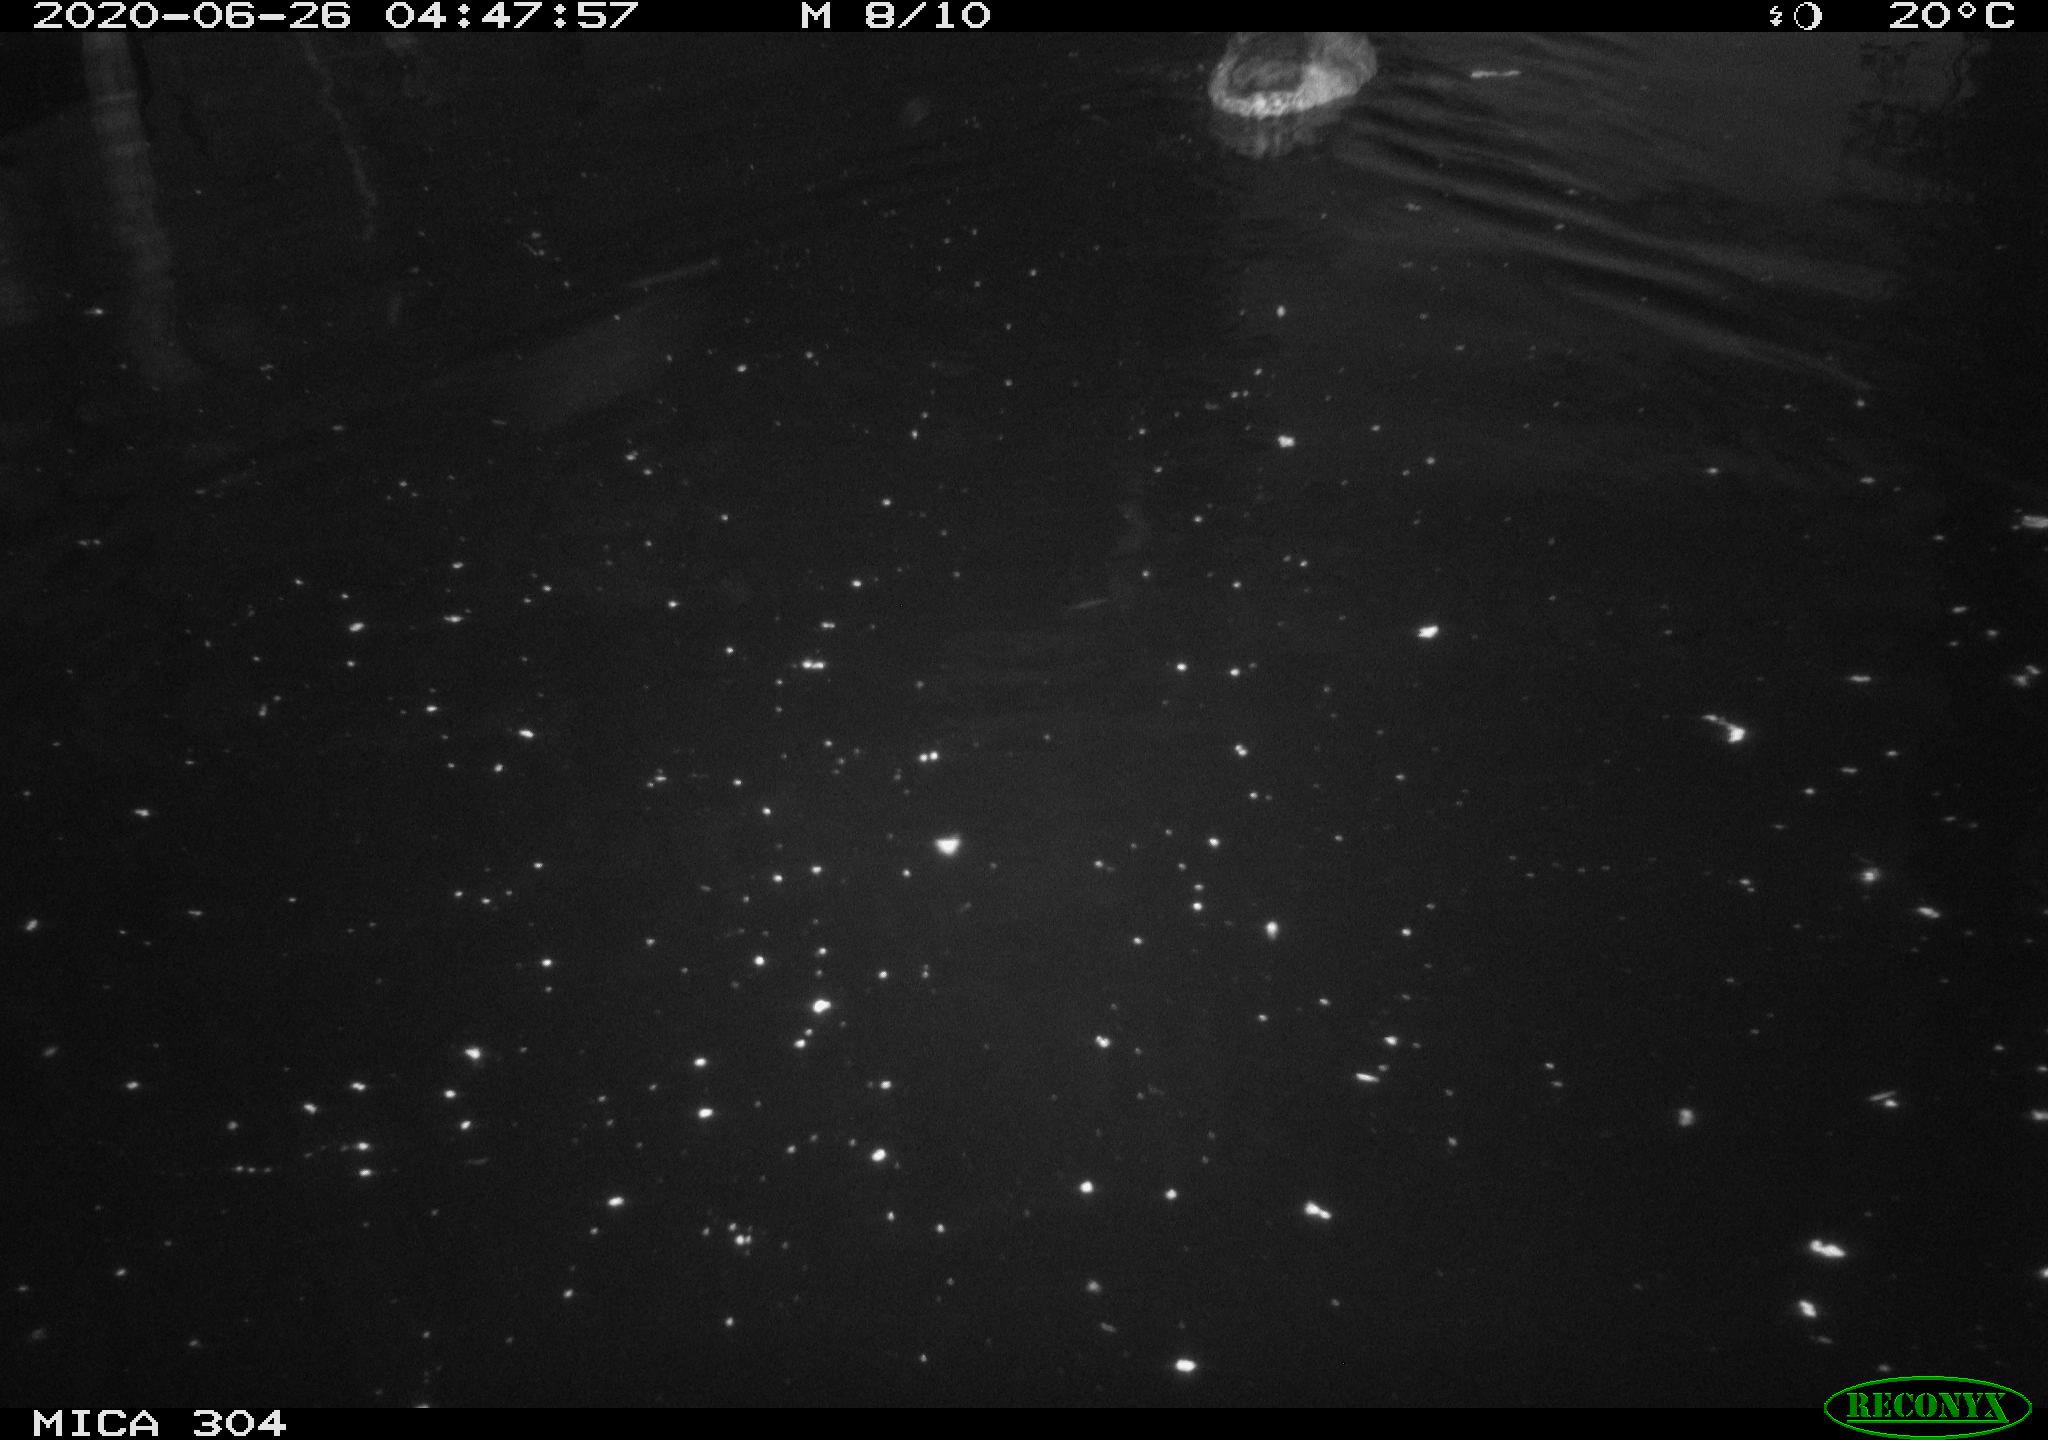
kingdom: Animalia
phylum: Chordata
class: Aves
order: Anseriformes
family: Anatidae
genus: Anas
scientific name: Anas platyrhynchos
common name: Mallard
